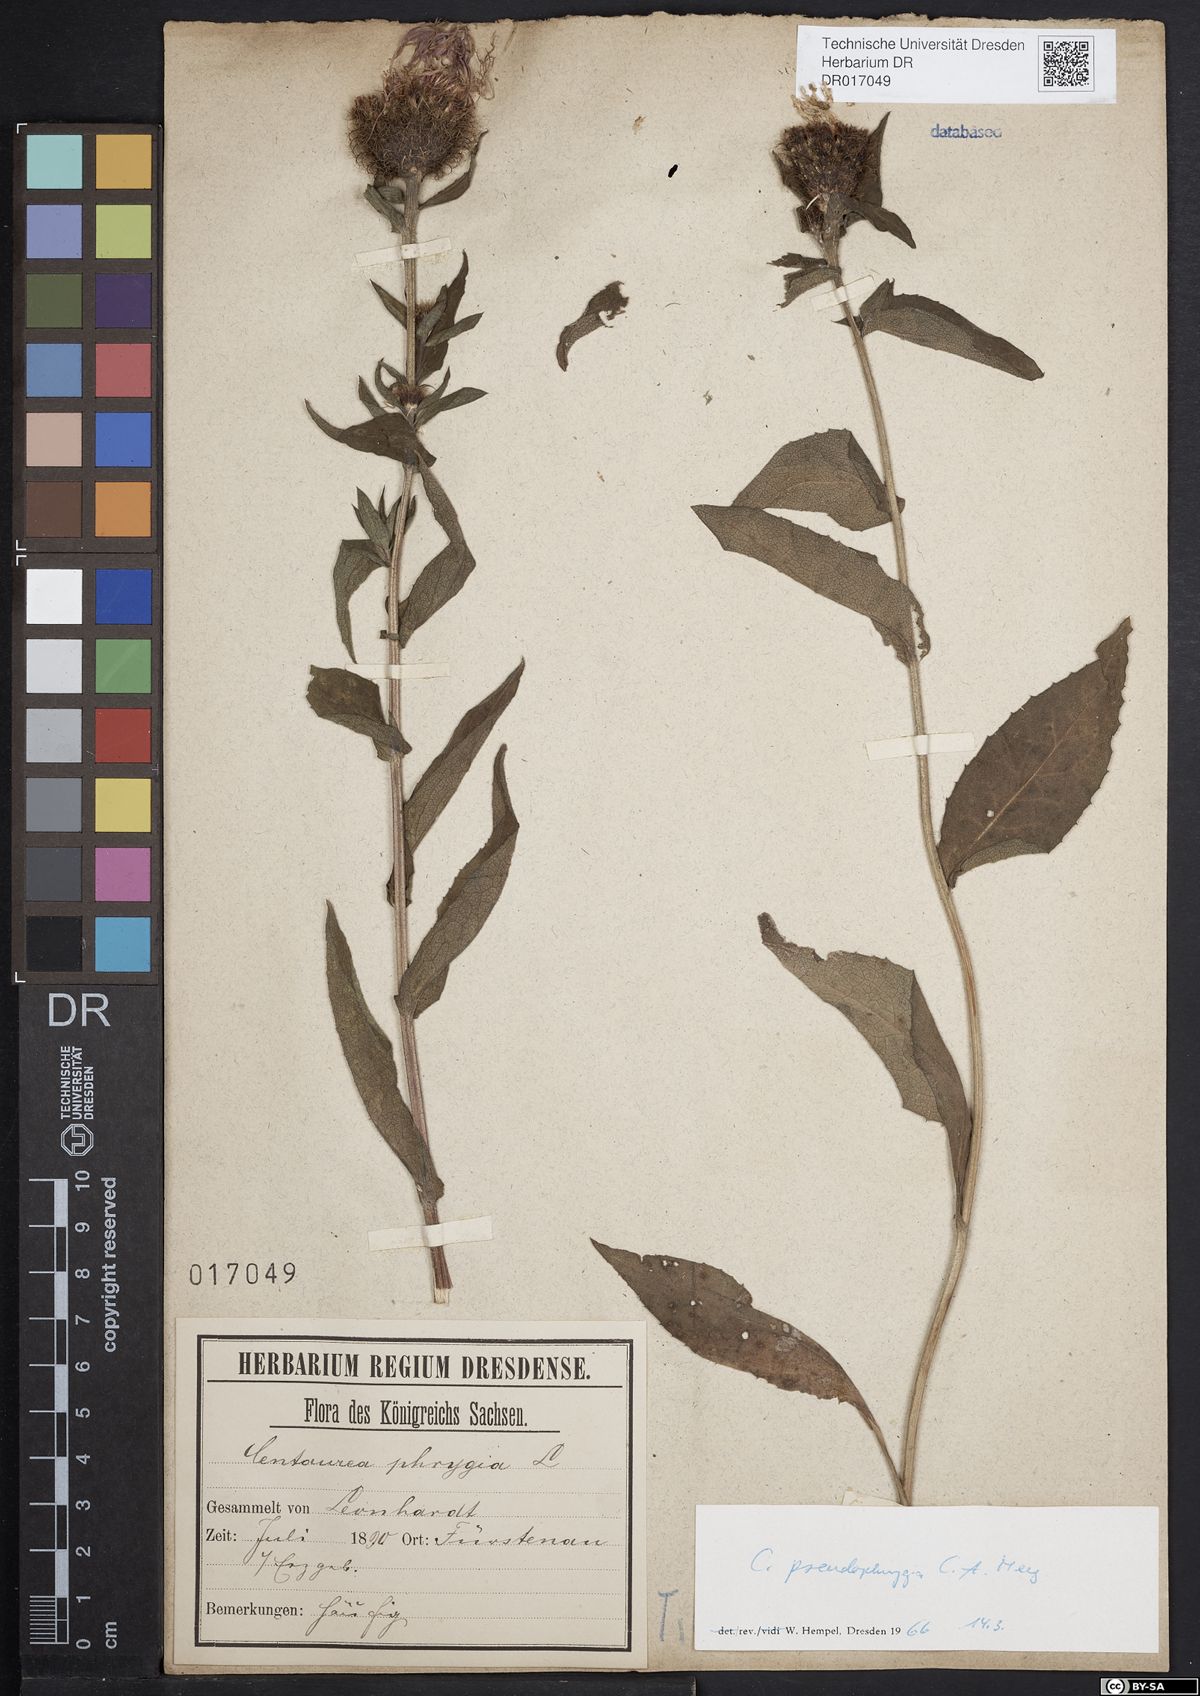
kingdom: Plantae
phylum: Tracheophyta
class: Magnoliopsida
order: Asterales
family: Asteraceae
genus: Centaurea
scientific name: Centaurea pseudophrygia
